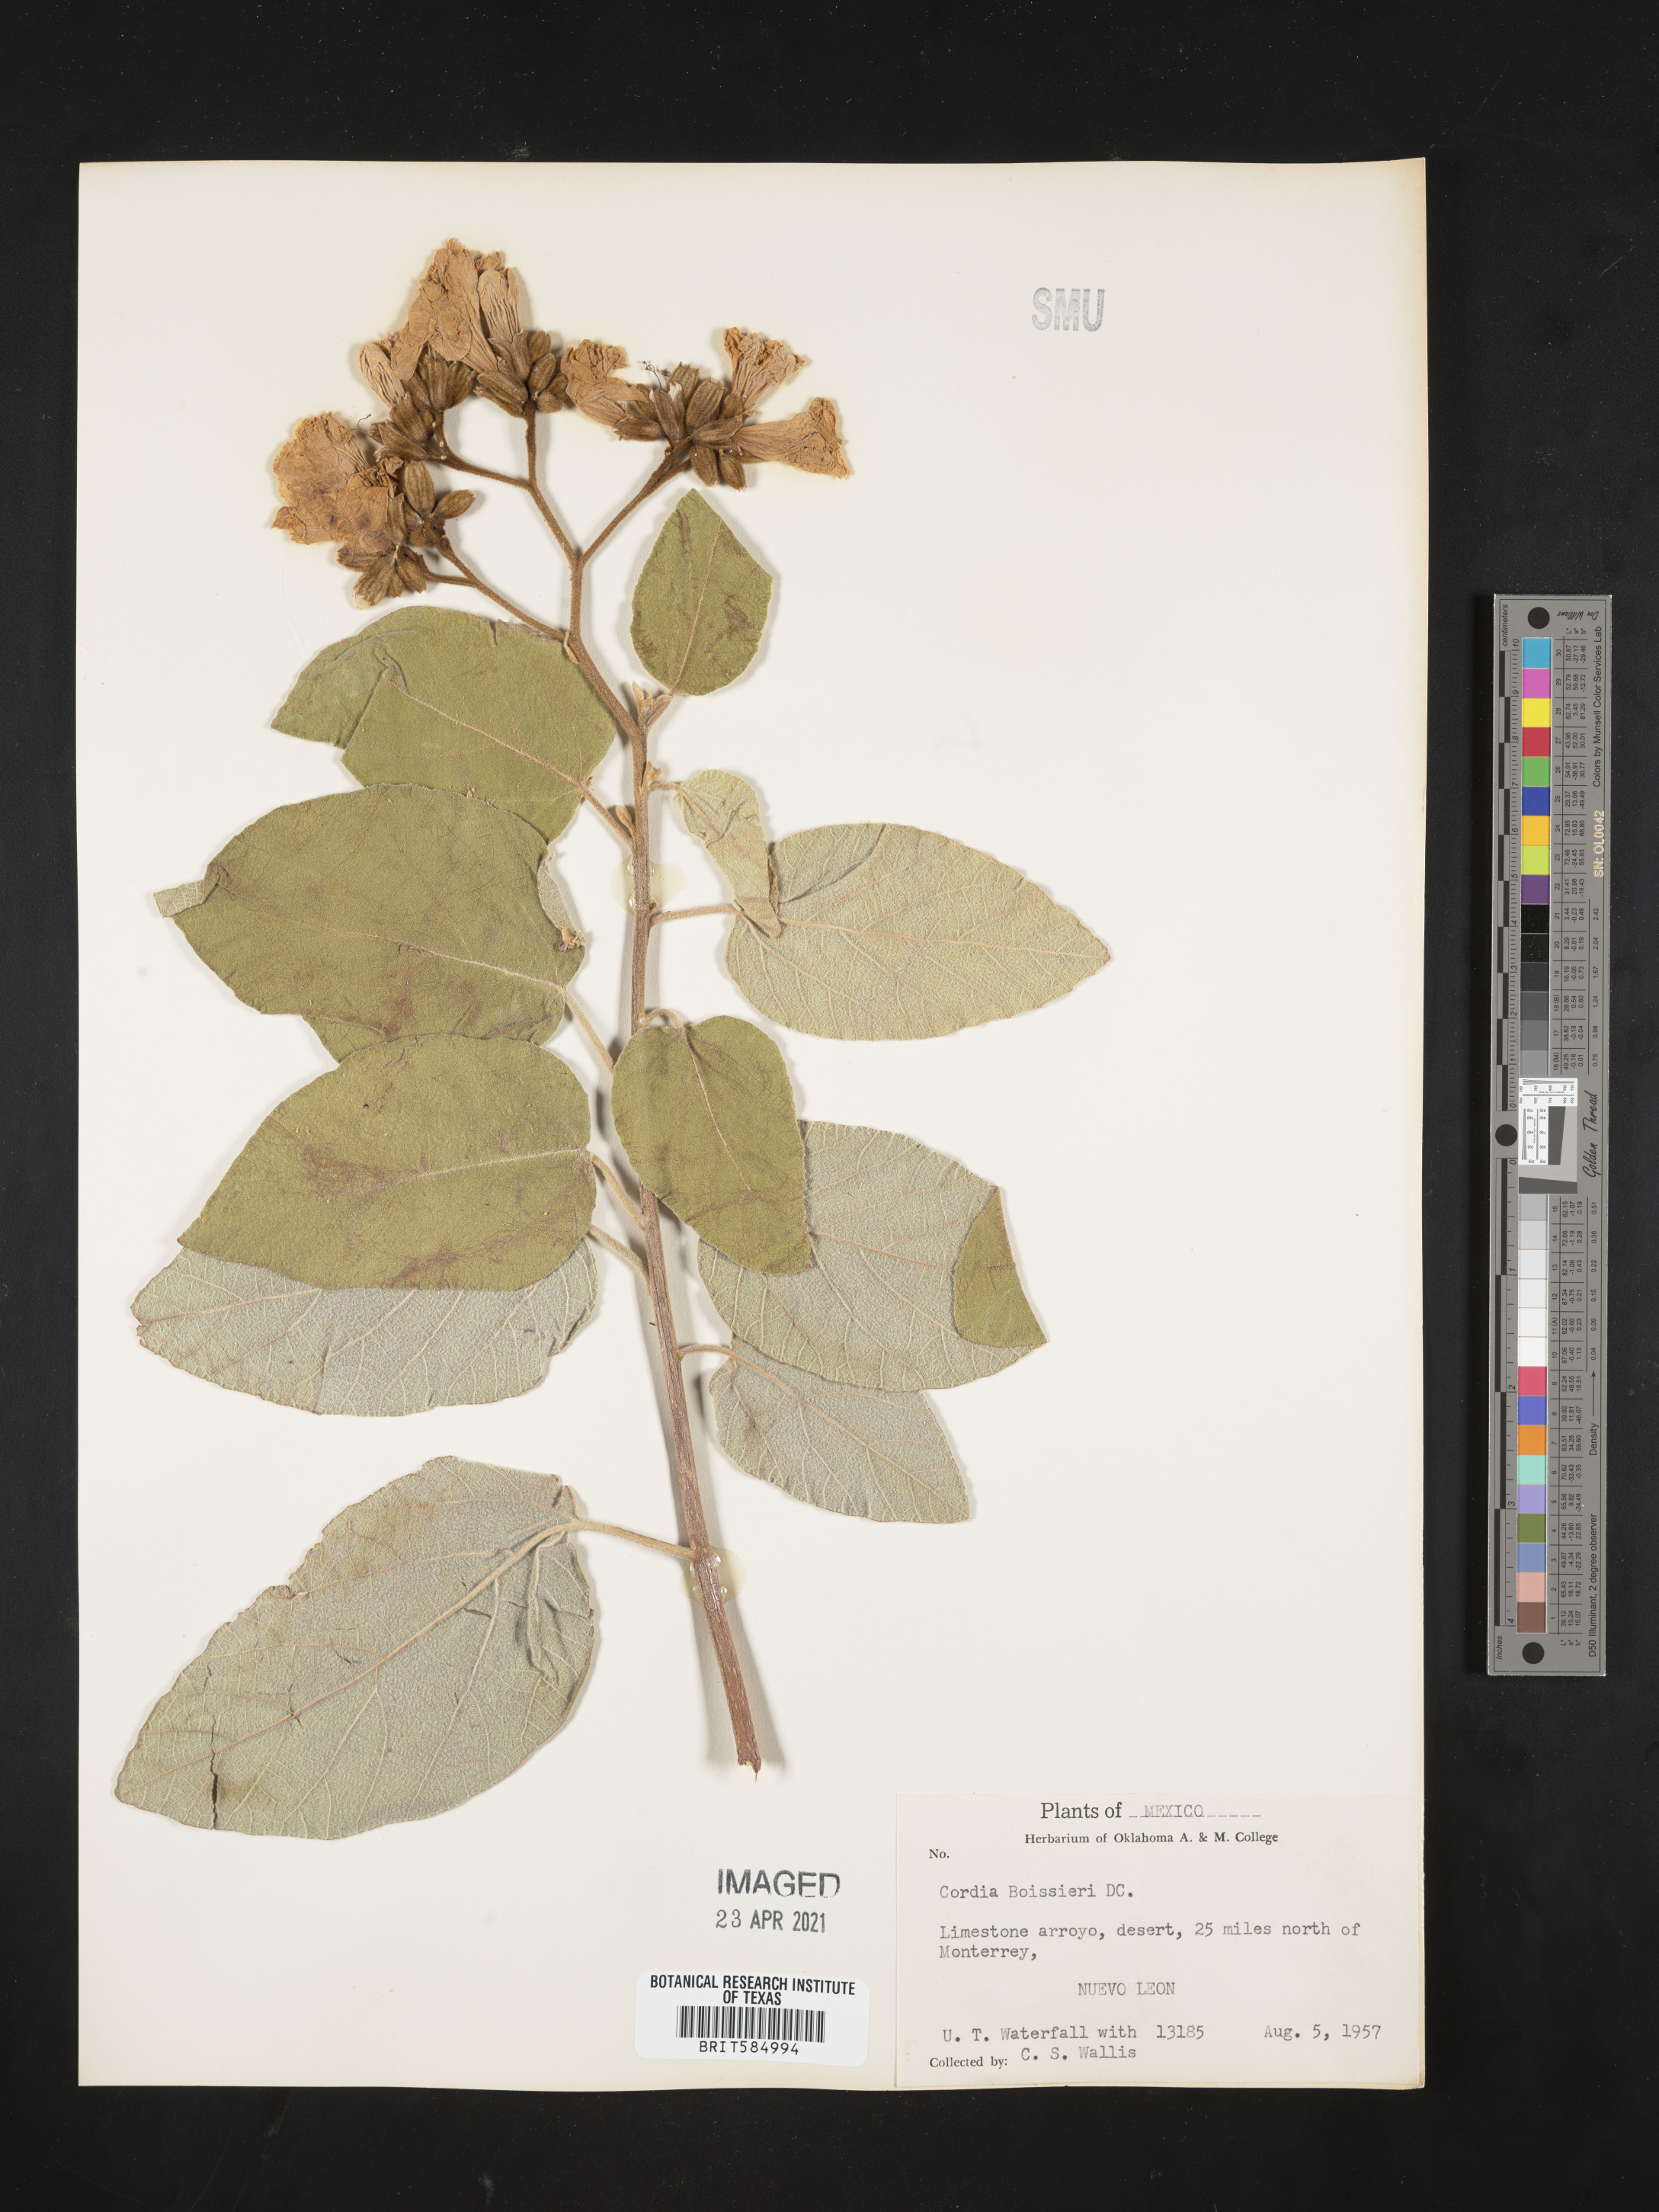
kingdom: Plantae
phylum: Tracheophyta
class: Magnoliopsida
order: Boraginales
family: Cordiaceae
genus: Cordia
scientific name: Cordia boissieri
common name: Mexican-olive
